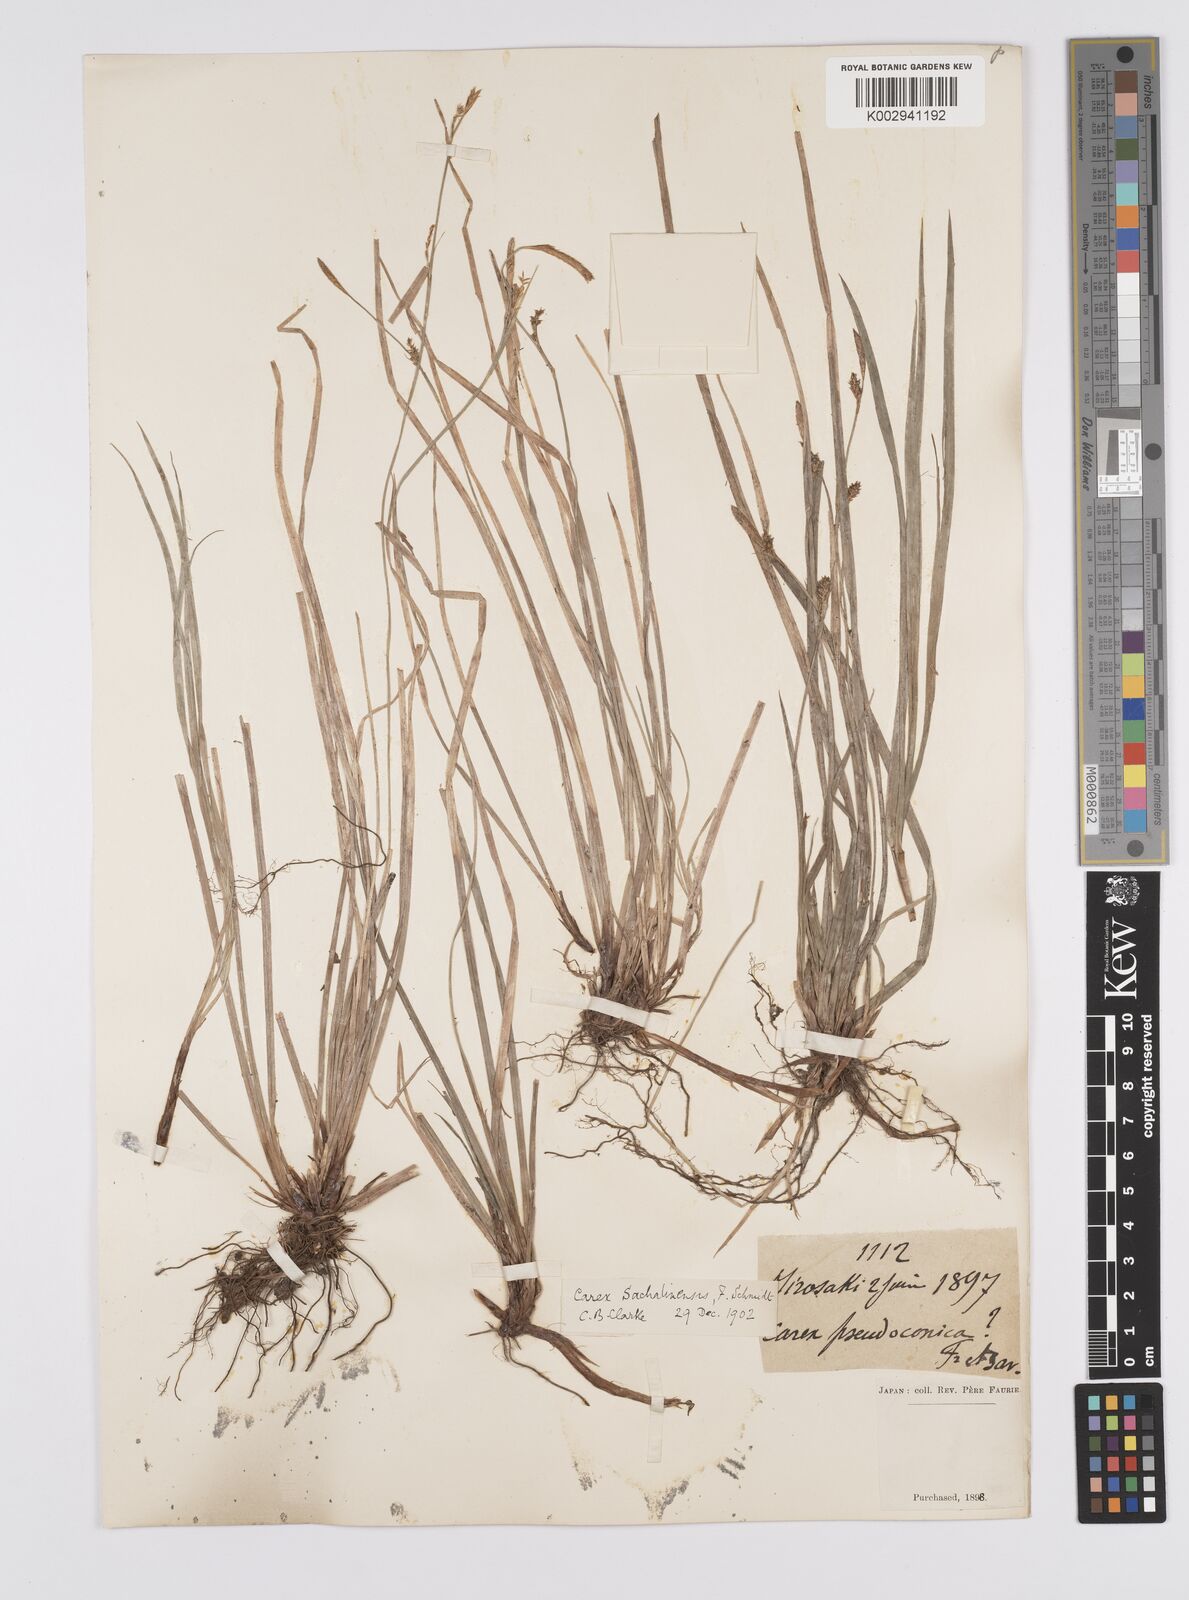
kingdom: Plantae
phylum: Tracheophyta
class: Liliopsida
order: Poales
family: Cyperaceae
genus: Carex
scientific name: Carex pisiformis
